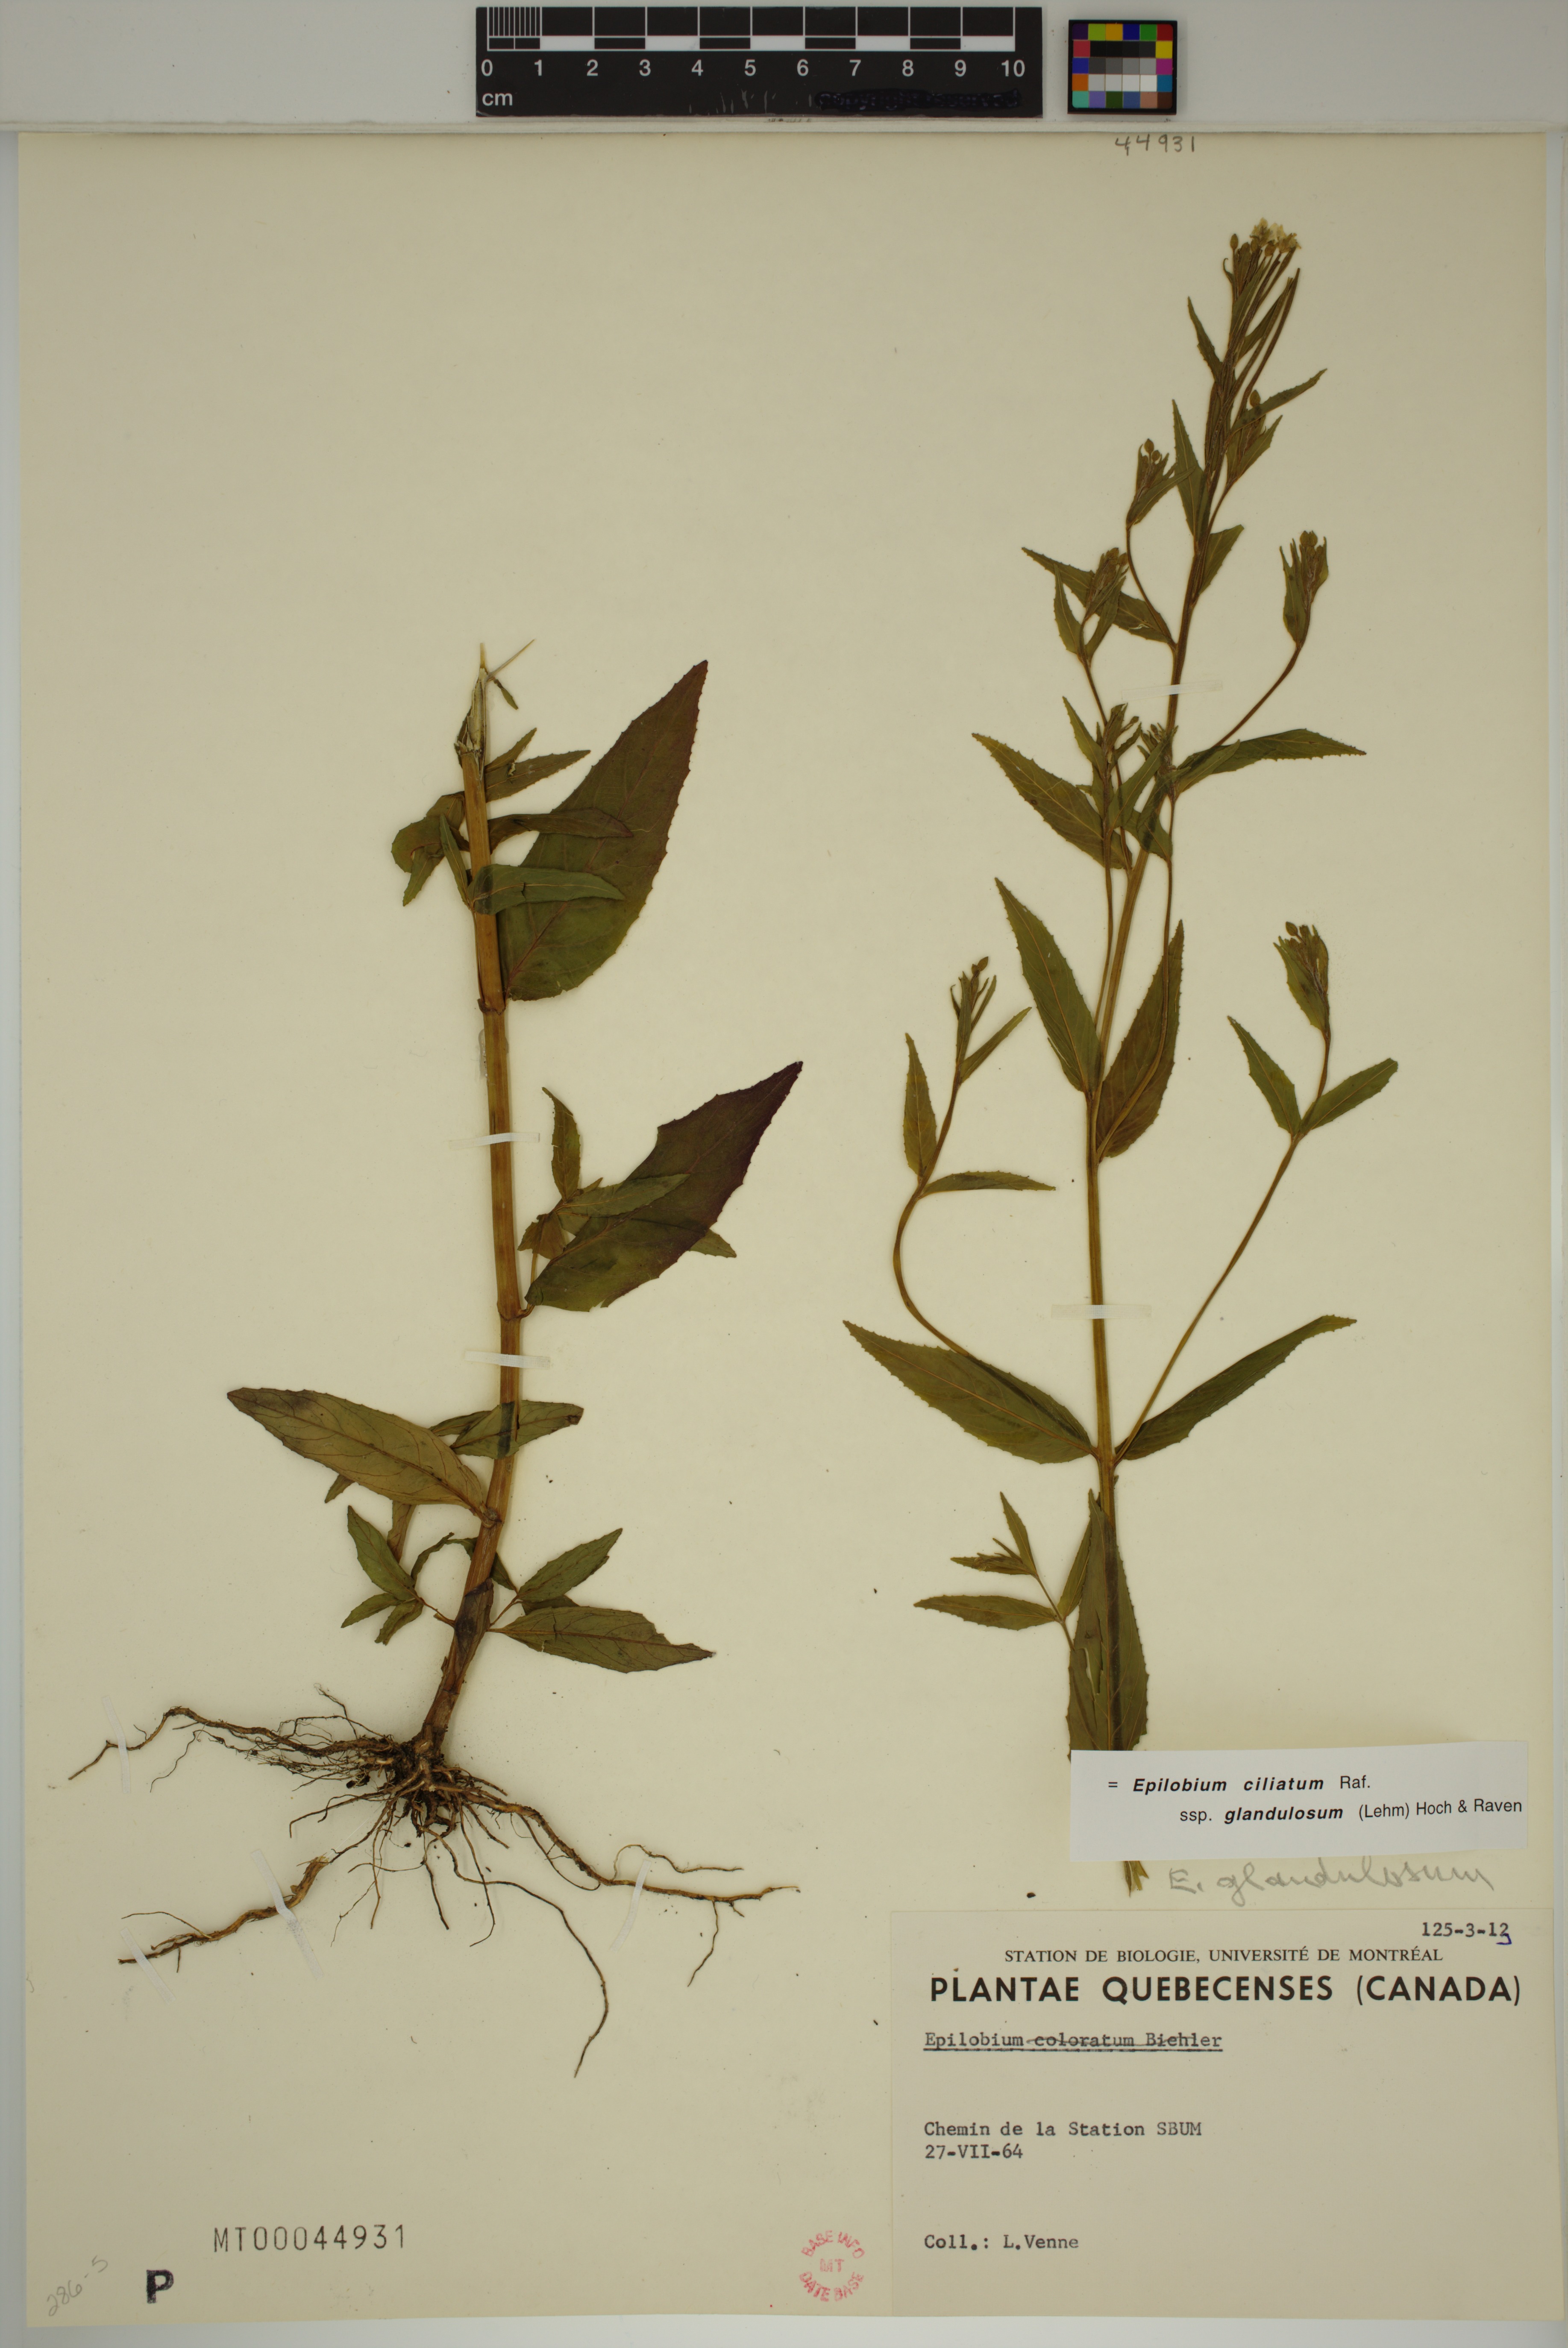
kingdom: Plantae
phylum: Tracheophyta
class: Magnoliopsida
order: Myrtales
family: Onagraceae
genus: Epilobium
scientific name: Epilobium ciliatum
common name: American willowherb
